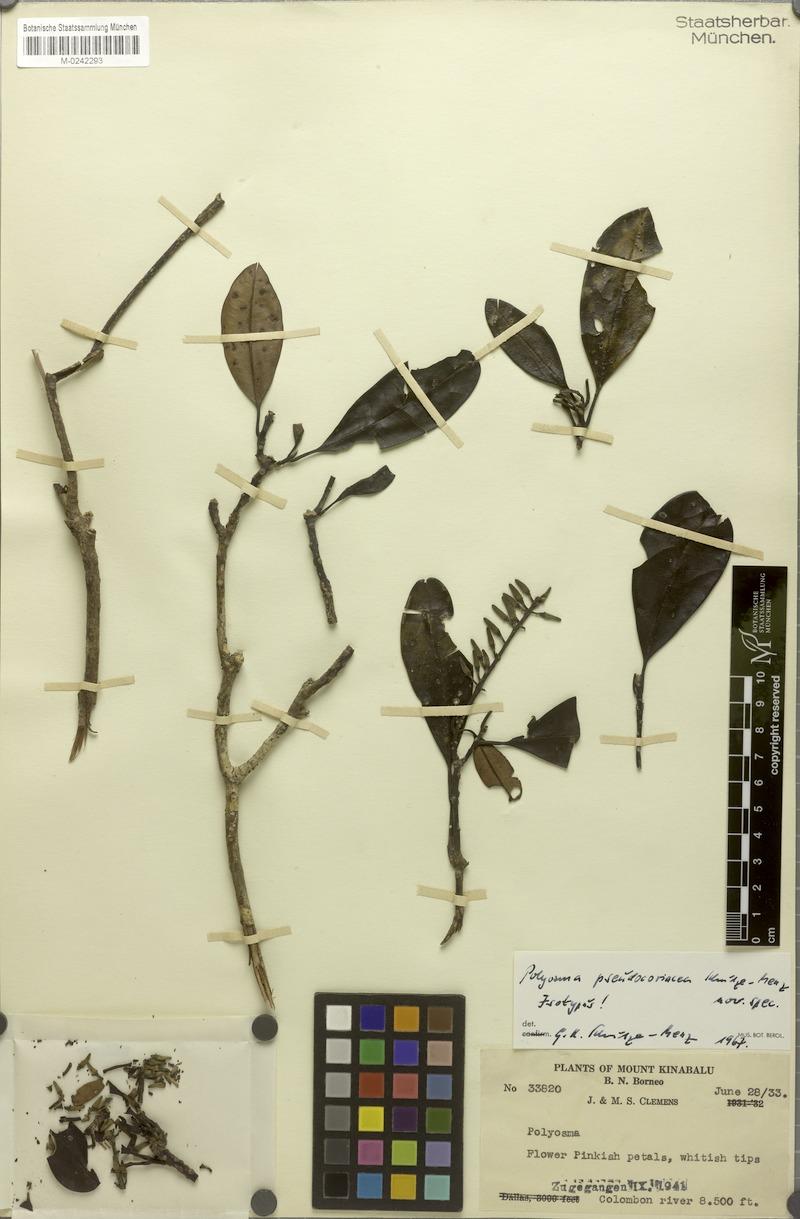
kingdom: Plantae
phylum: Tracheophyta
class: Magnoliopsida
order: Escalloniales
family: Escalloniaceae
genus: Polyosma
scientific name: Polyosma
